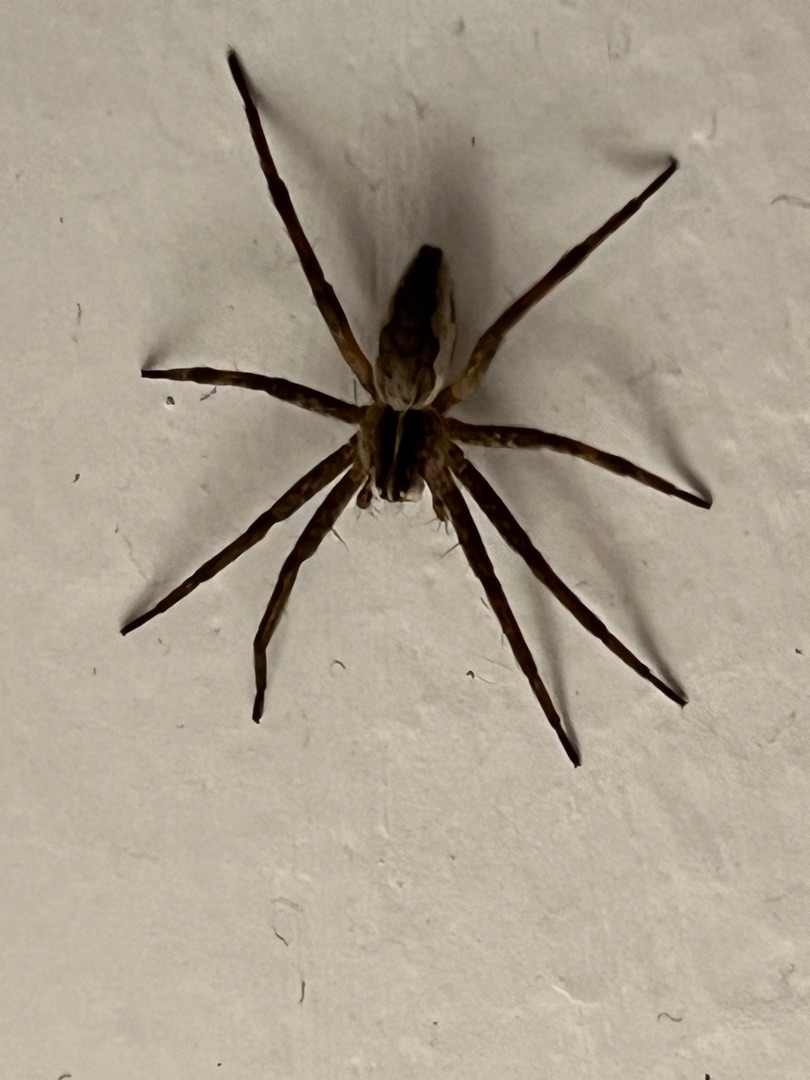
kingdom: Animalia
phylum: Arthropoda
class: Arachnida
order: Araneae
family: Pisauridae
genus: Pisaura
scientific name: Pisaura mirabilis
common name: Almindelig rovedderkop
